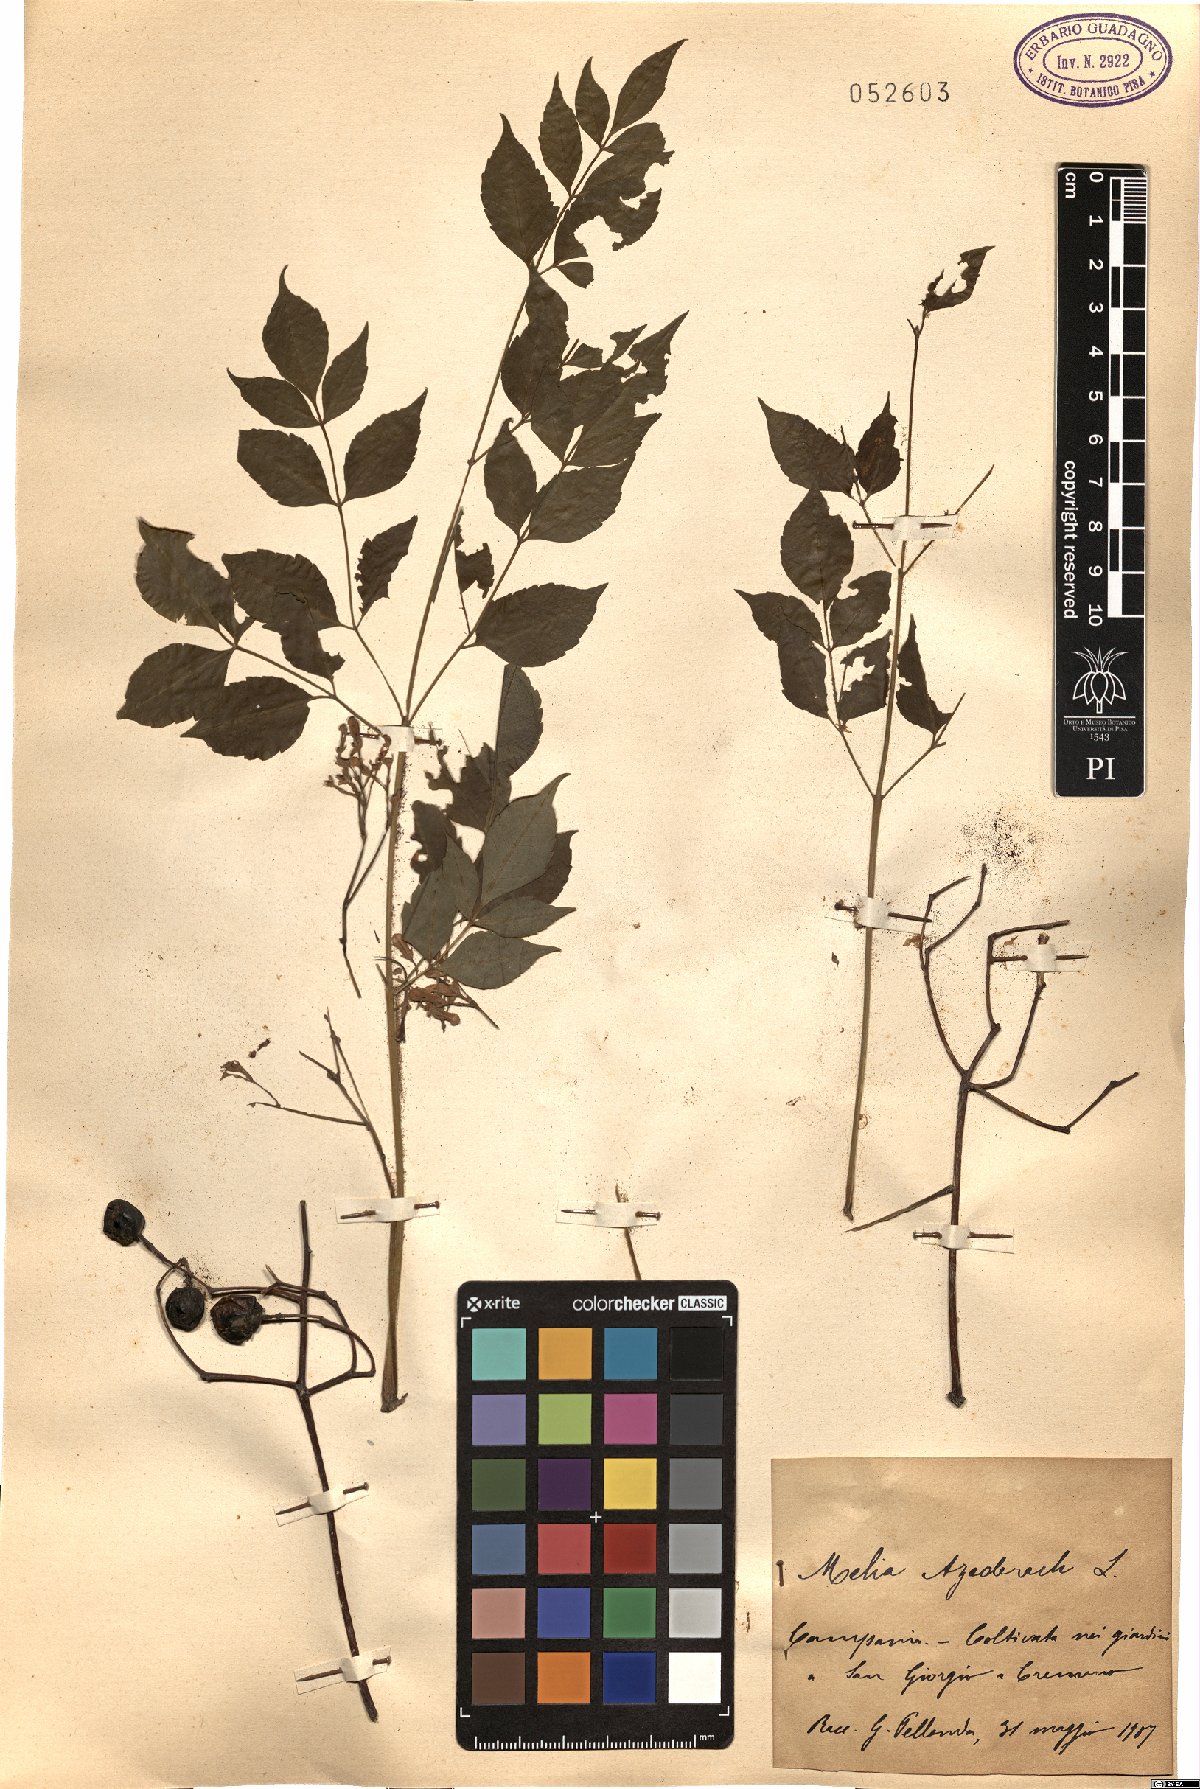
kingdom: Plantae
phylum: Tracheophyta
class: Magnoliopsida
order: Sapindales
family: Meliaceae
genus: Melia
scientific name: Melia azedarach
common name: Chinaberrytree
